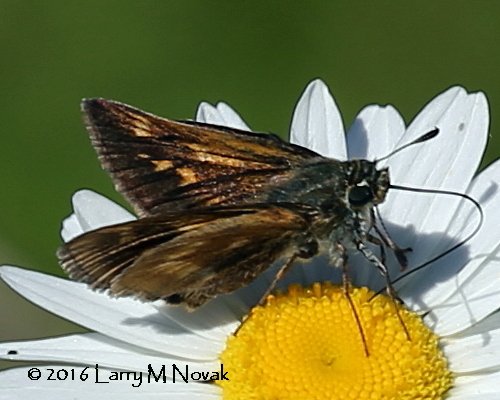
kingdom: Animalia
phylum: Arthropoda
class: Insecta
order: Lepidoptera
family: Hesperiidae
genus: Polites
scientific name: Polites
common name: Long Dash Skipper
